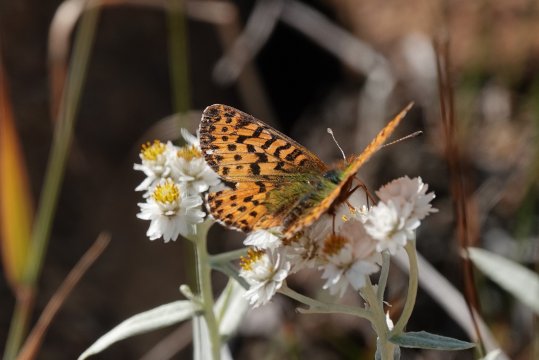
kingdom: Animalia
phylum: Arthropoda
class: Insecta
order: Lepidoptera
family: Nymphalidae
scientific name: Nymphalidae
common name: Brushfoots
